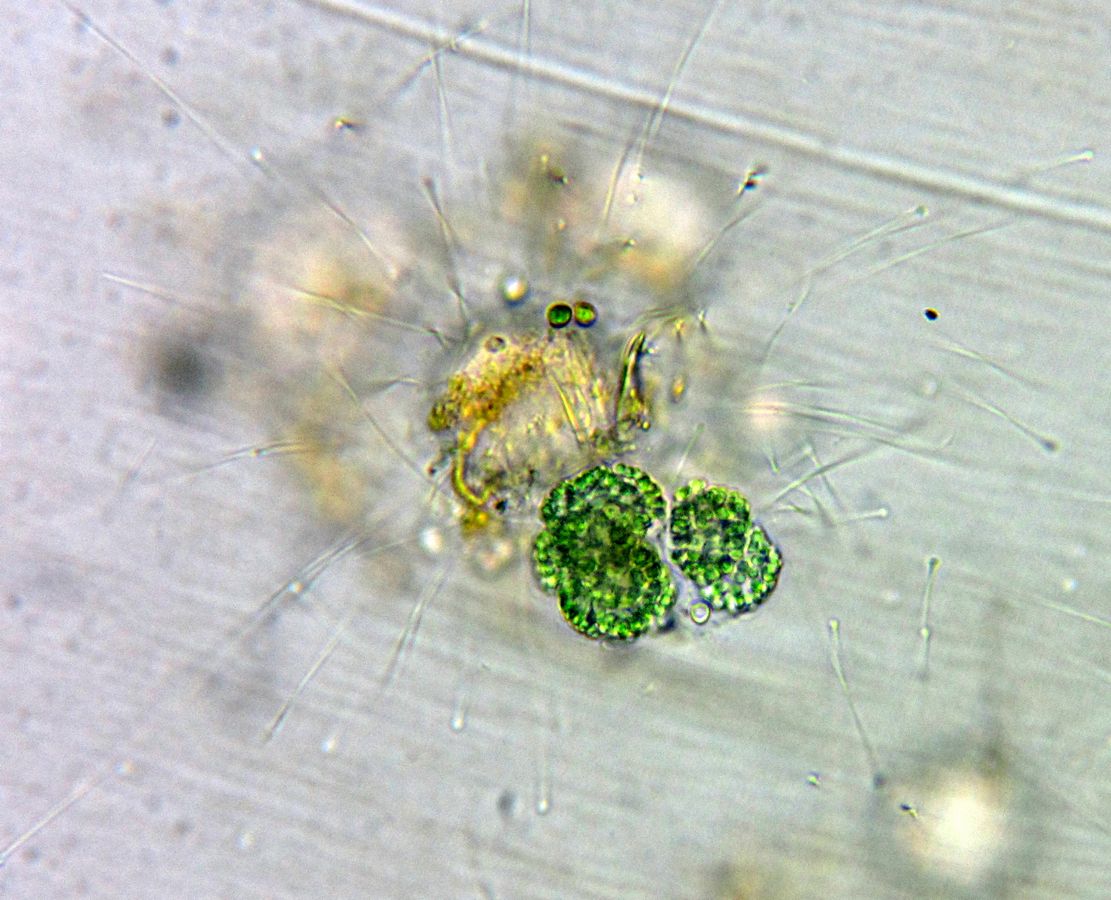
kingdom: Bacteria
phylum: Cyanobacteria
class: Cyanobacteriia
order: Synechococcales
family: Coelosphaeriaceae
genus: Woronichinia
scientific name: Woronichinia compacta
